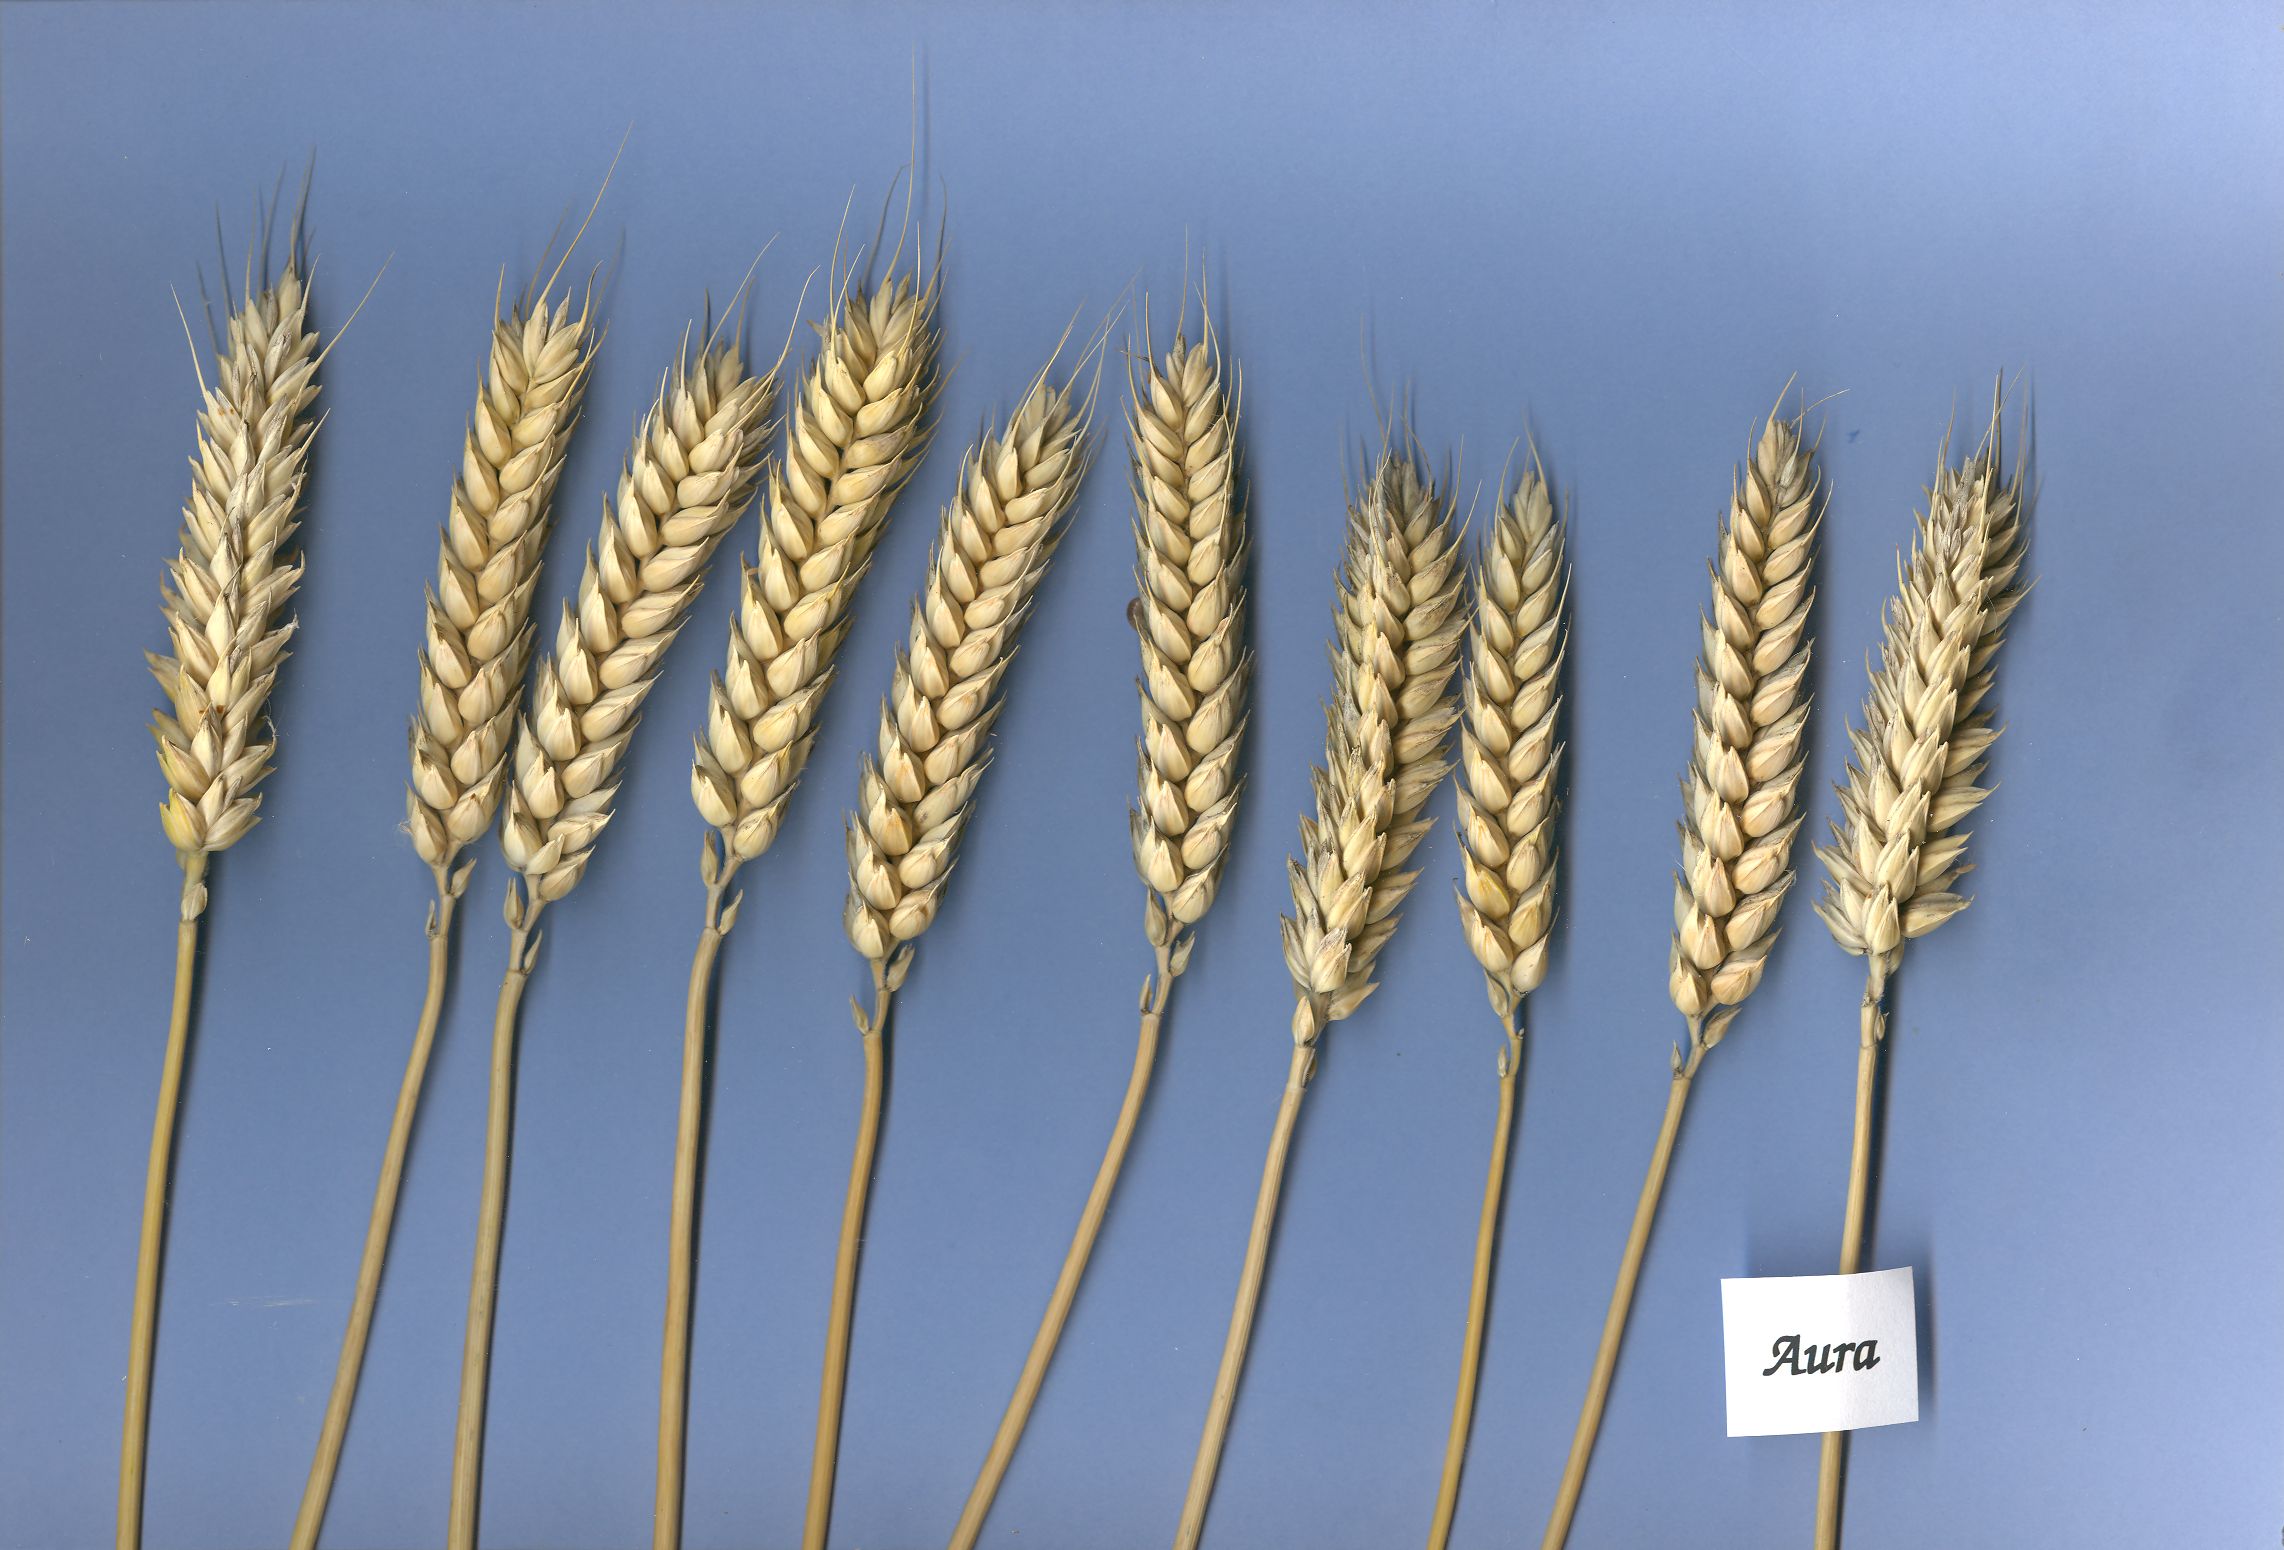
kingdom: Plantae
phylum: Tracheophyta
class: Liliopsida
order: Poales
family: Poaceae
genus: Triticum
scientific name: Triticum aestivum
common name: Common wheat
